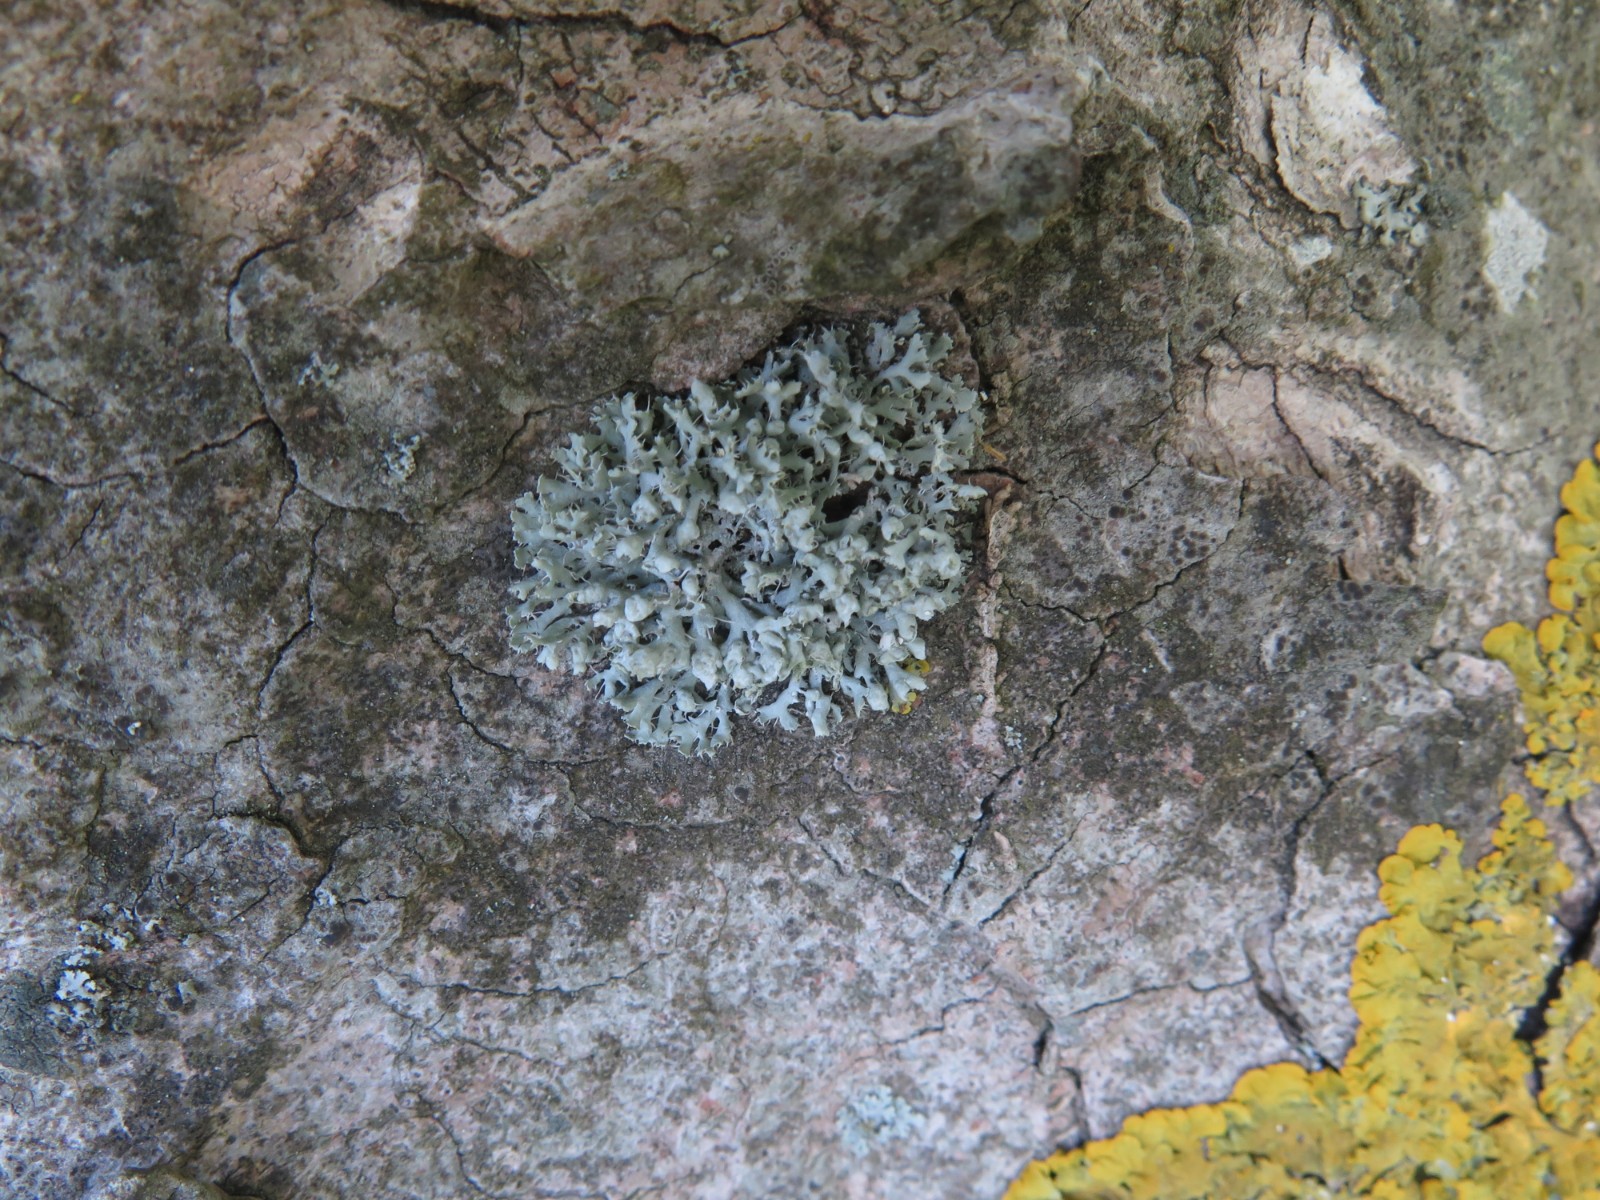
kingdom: Fungi
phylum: Ascomycota
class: Lecanoromycetes
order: Caliciales
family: Physciaceae
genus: Physcia
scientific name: Physcia adscendens
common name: hætte-rosetlav
